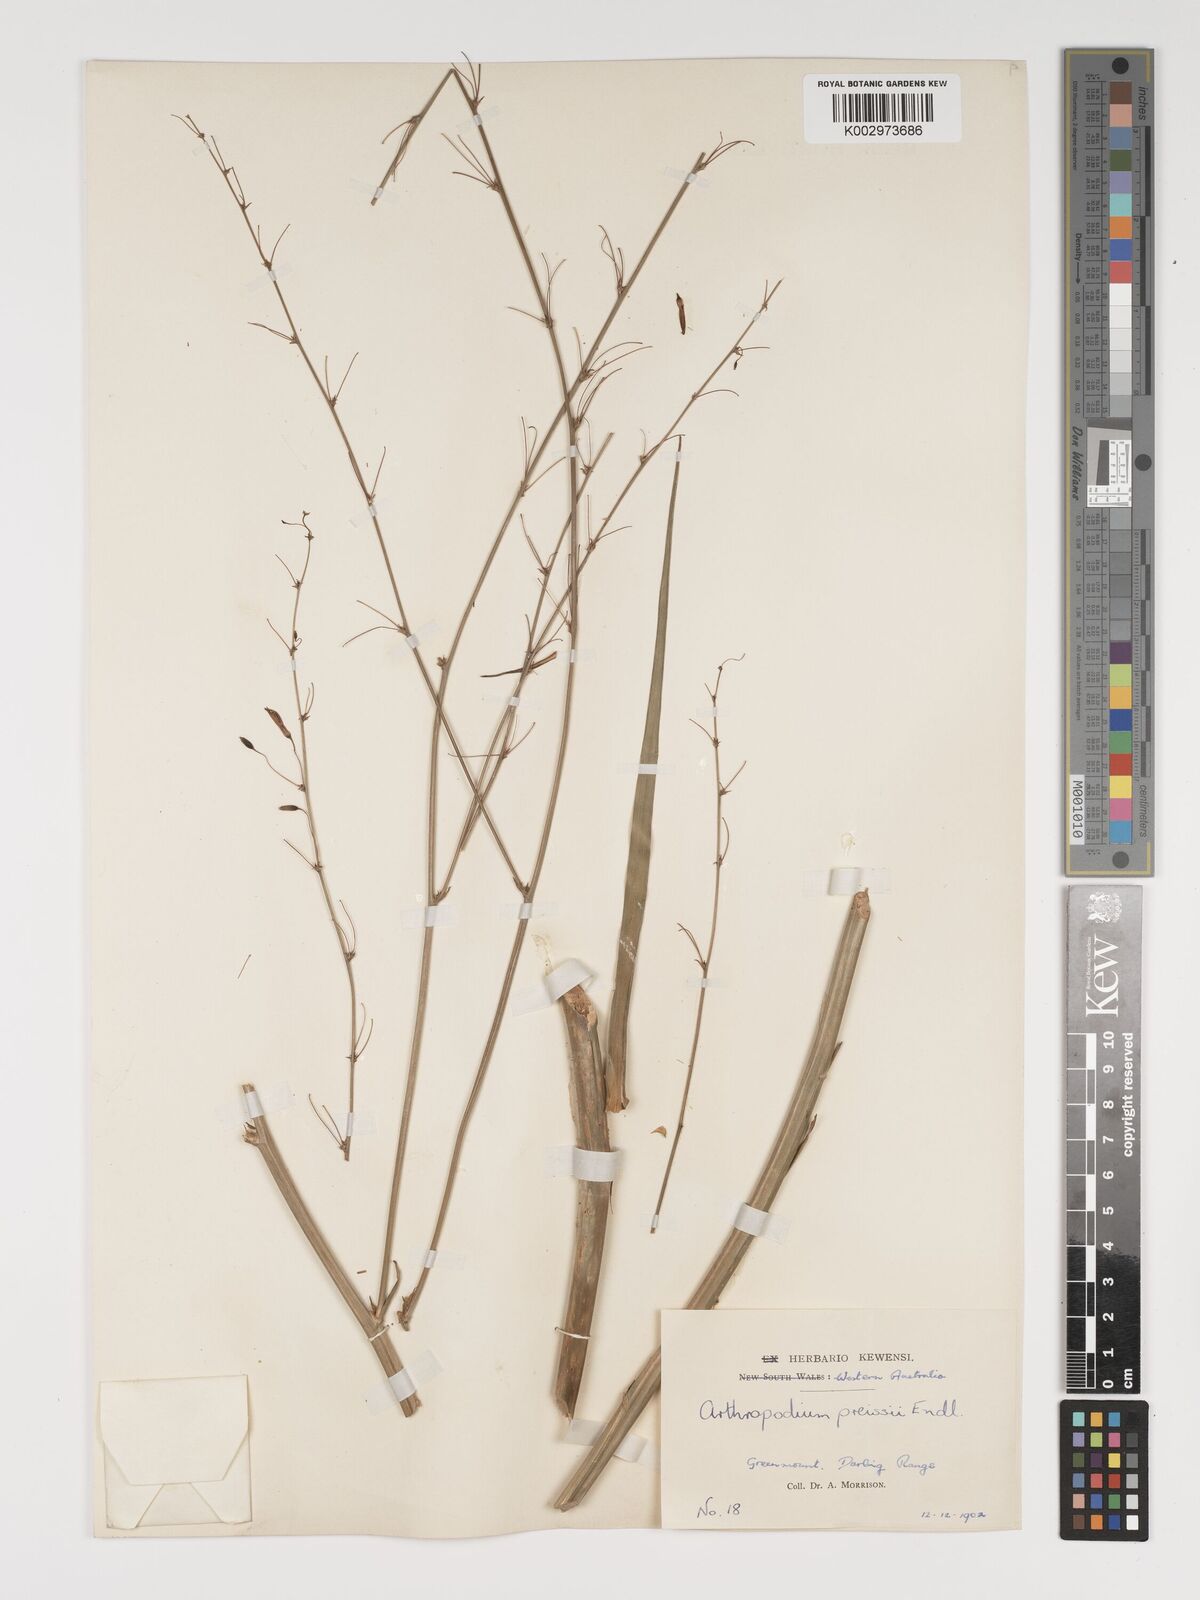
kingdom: Plantae
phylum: Tracheophyta
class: Liliopsida
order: Asparagales
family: Asparagaceae
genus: Dichopogon
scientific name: Dichopogon capillipes
